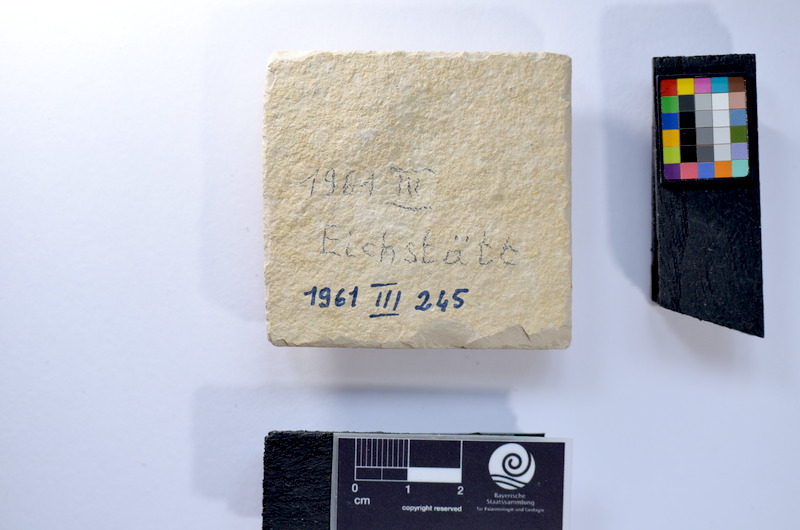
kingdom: Animalia
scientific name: Animalia
